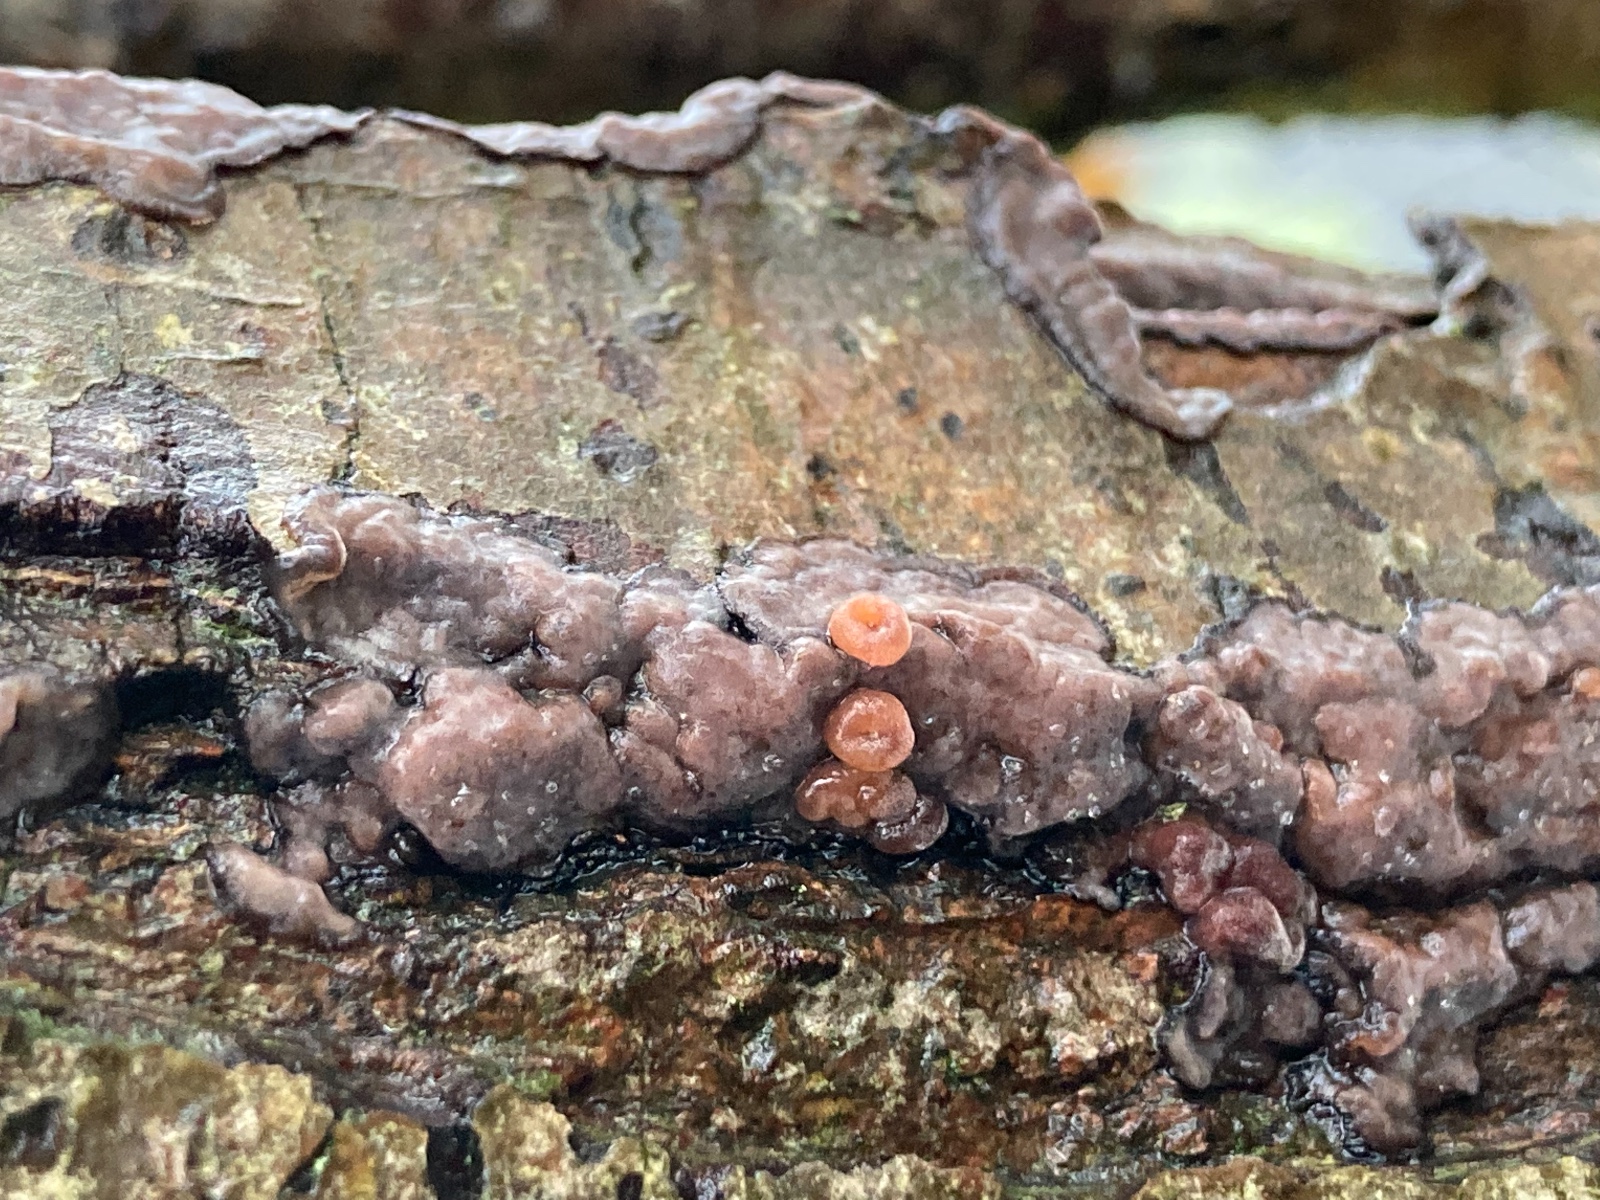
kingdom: Fungi
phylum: Basidiomycota
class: Pucciniomycetes
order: Platygloeales
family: Platygloeaceae
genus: Platygloea
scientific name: Platygloea
